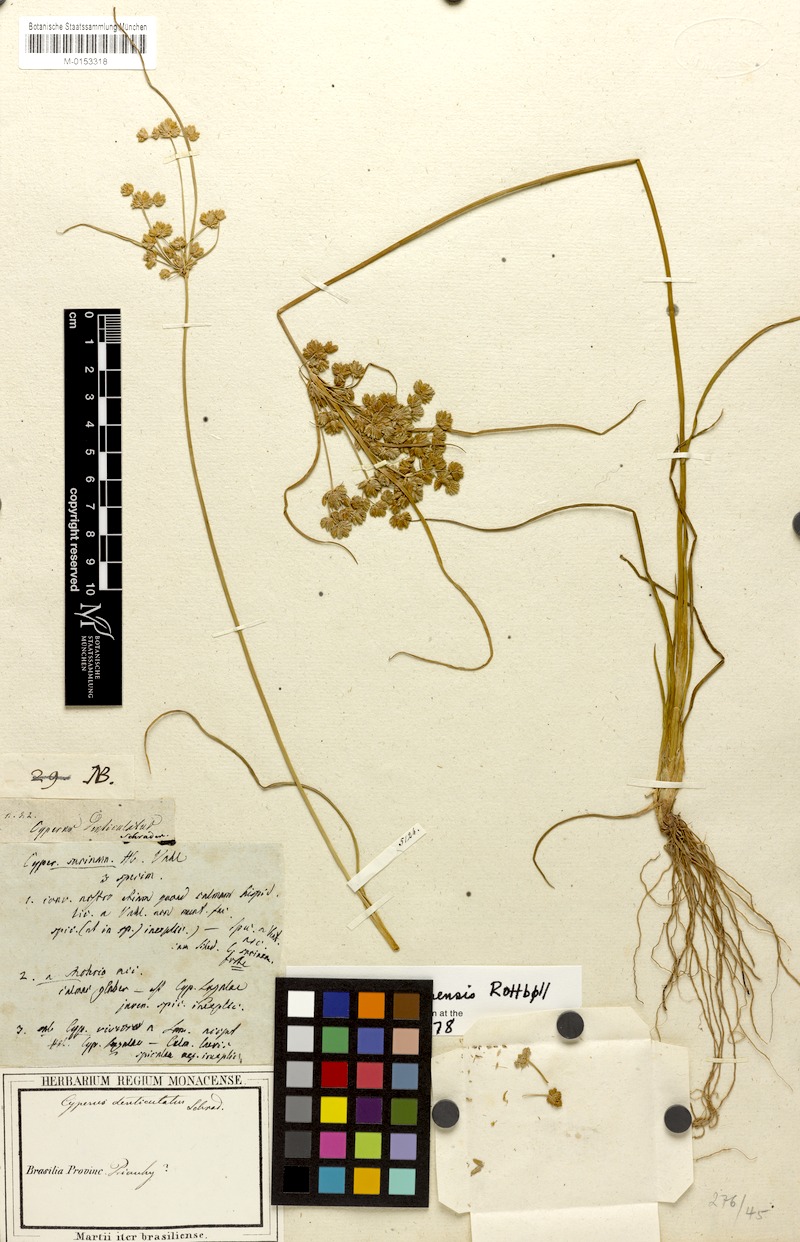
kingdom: Plantae
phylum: Tracheophyta
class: Liliopsida
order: Poales
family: Cyperaceae
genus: Cyperus
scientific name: Cyperus surinamensis
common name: Tropical flat sedge
